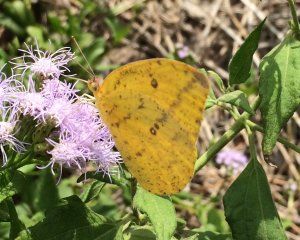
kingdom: Animalia
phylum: Arthropoda
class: Insecta
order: Lepidoptera
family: Pieridae
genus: Phoebis
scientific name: Phoebis agarithe
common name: Large Orange Sulphur
